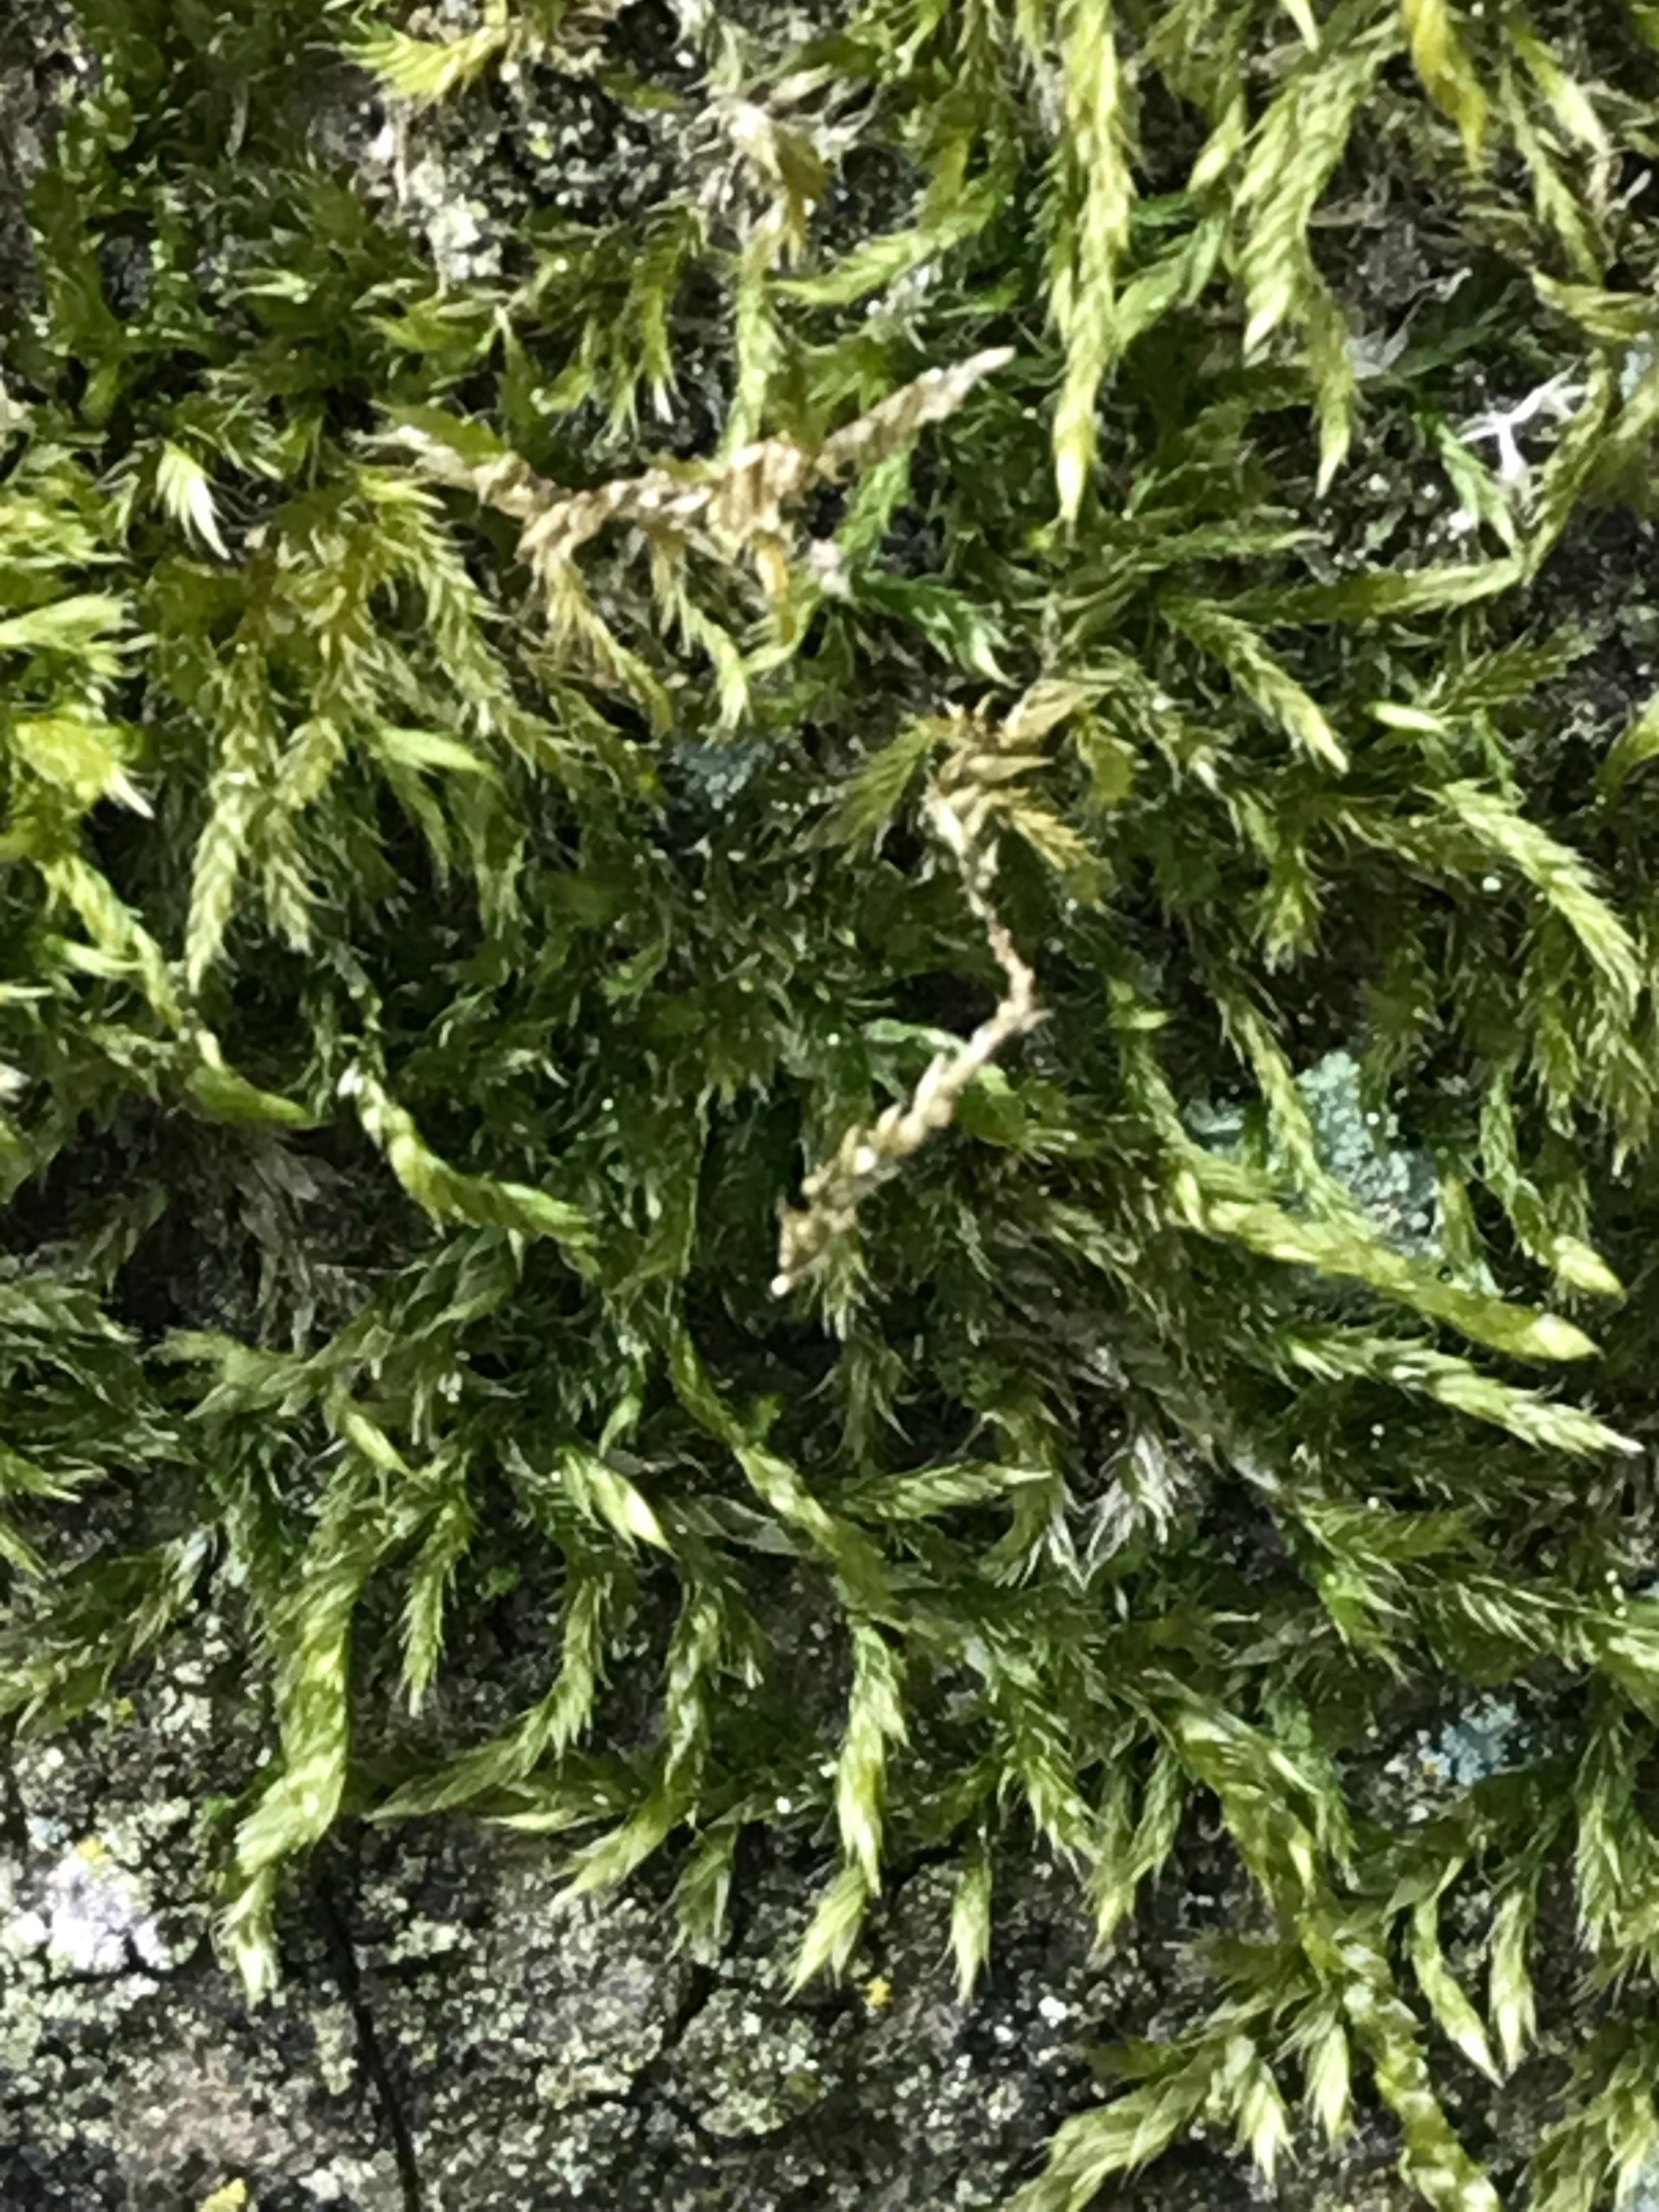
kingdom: Plantae
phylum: Bryophyta
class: Bryopsida
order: Hypnales
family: Hypnaceae
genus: Hypnum
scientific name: Hypnum
